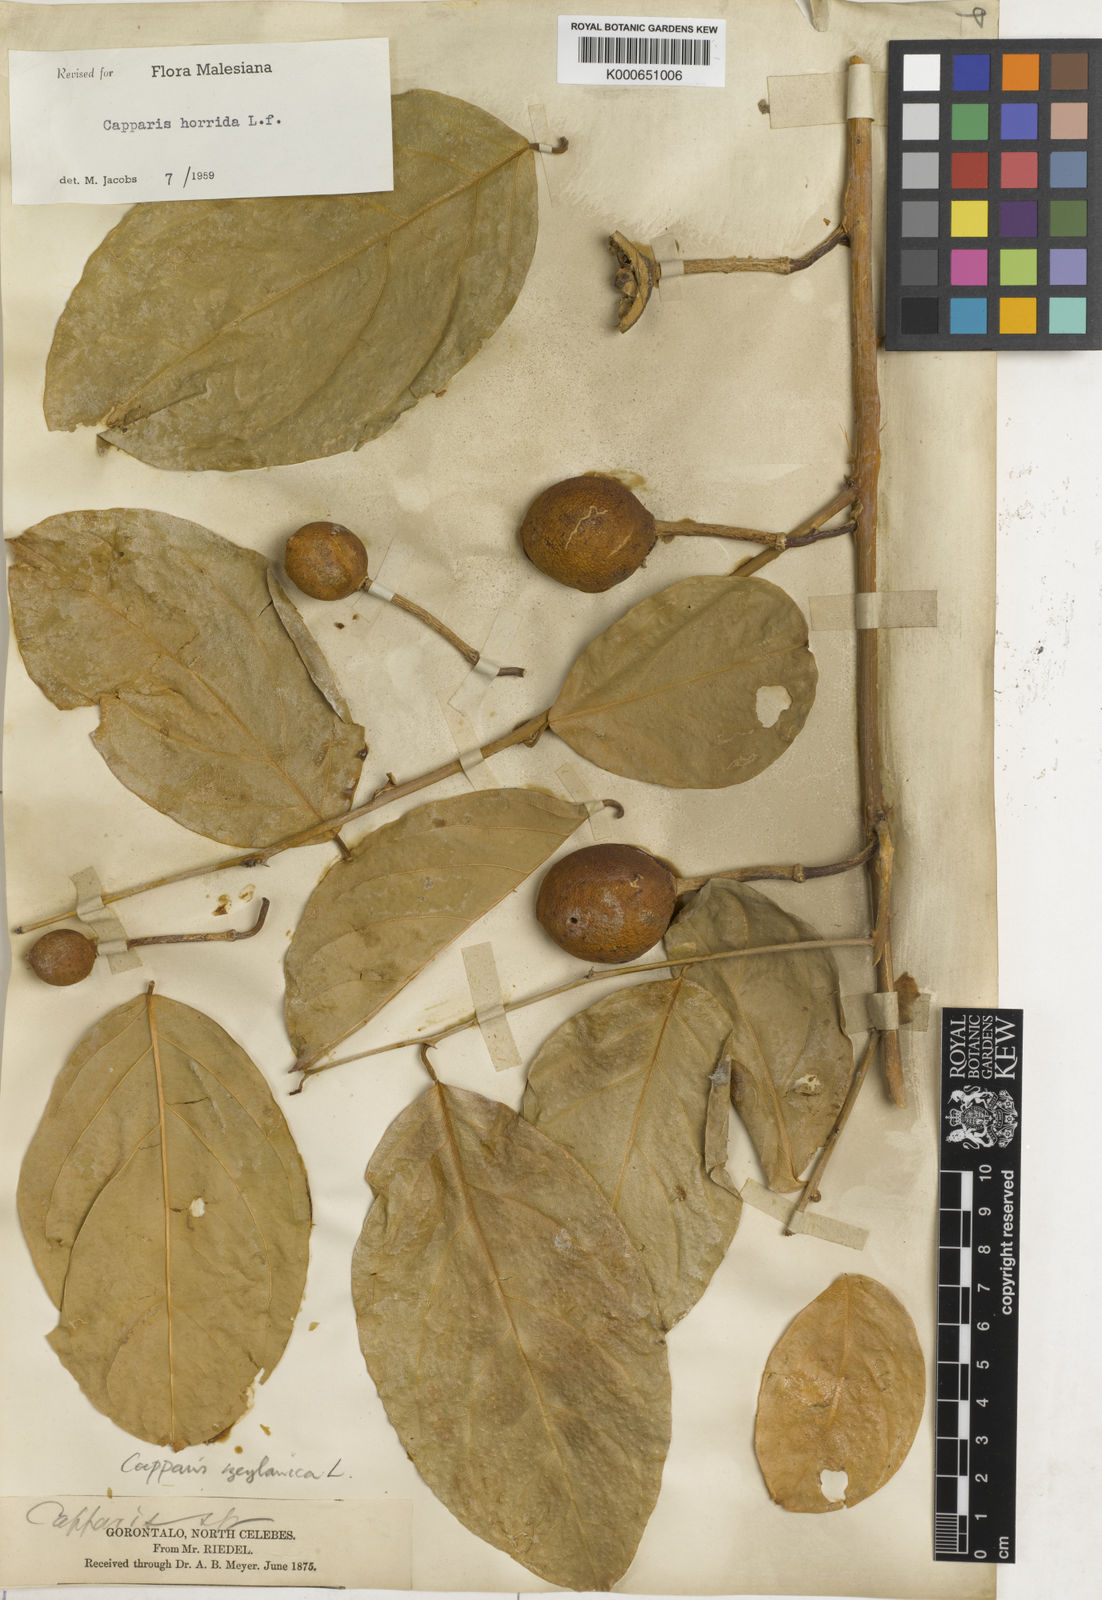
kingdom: Plantae
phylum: Tracheophyta
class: Magnoliopsida
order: Brassicales
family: Capparaceae
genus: Capparis
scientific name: Capparis zeylanica
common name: Ceylon caper
